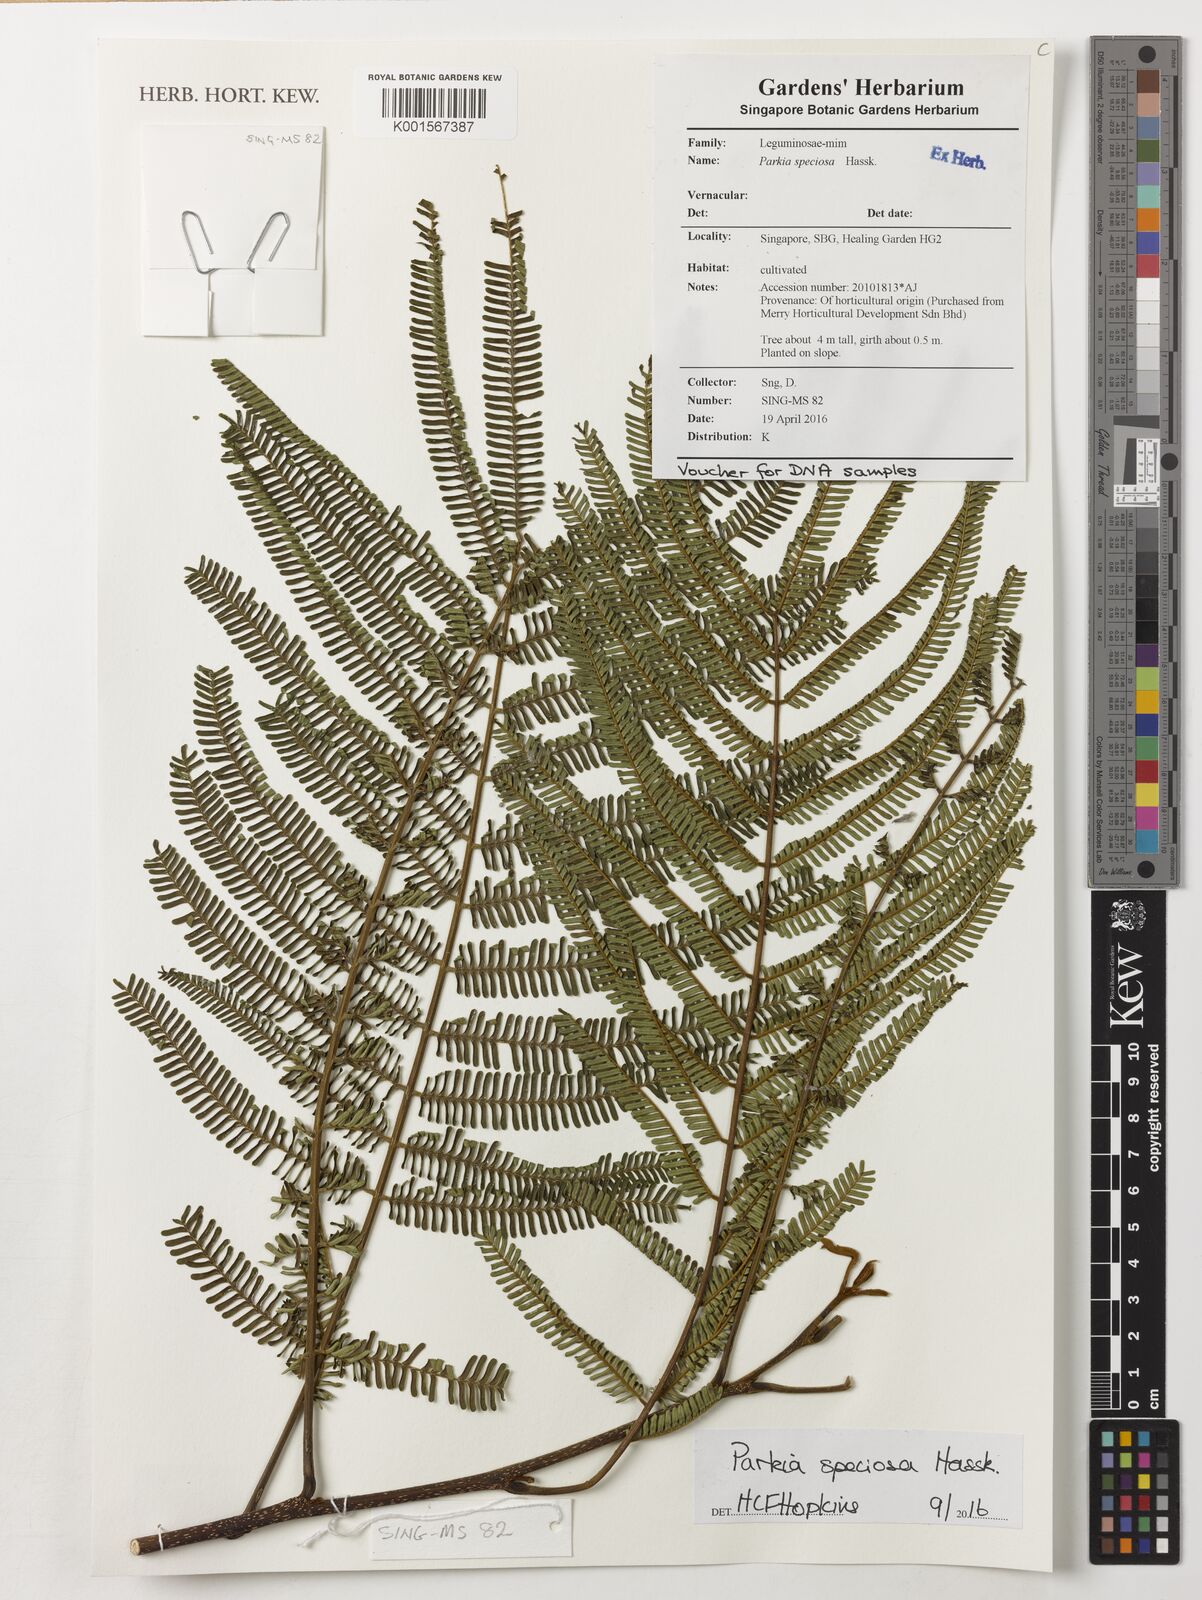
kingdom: Plantae
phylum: Tracheophyta
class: Magnoliopsida
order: Fabales
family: Fabaceae
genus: Parkia
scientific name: Parkia speciosa
